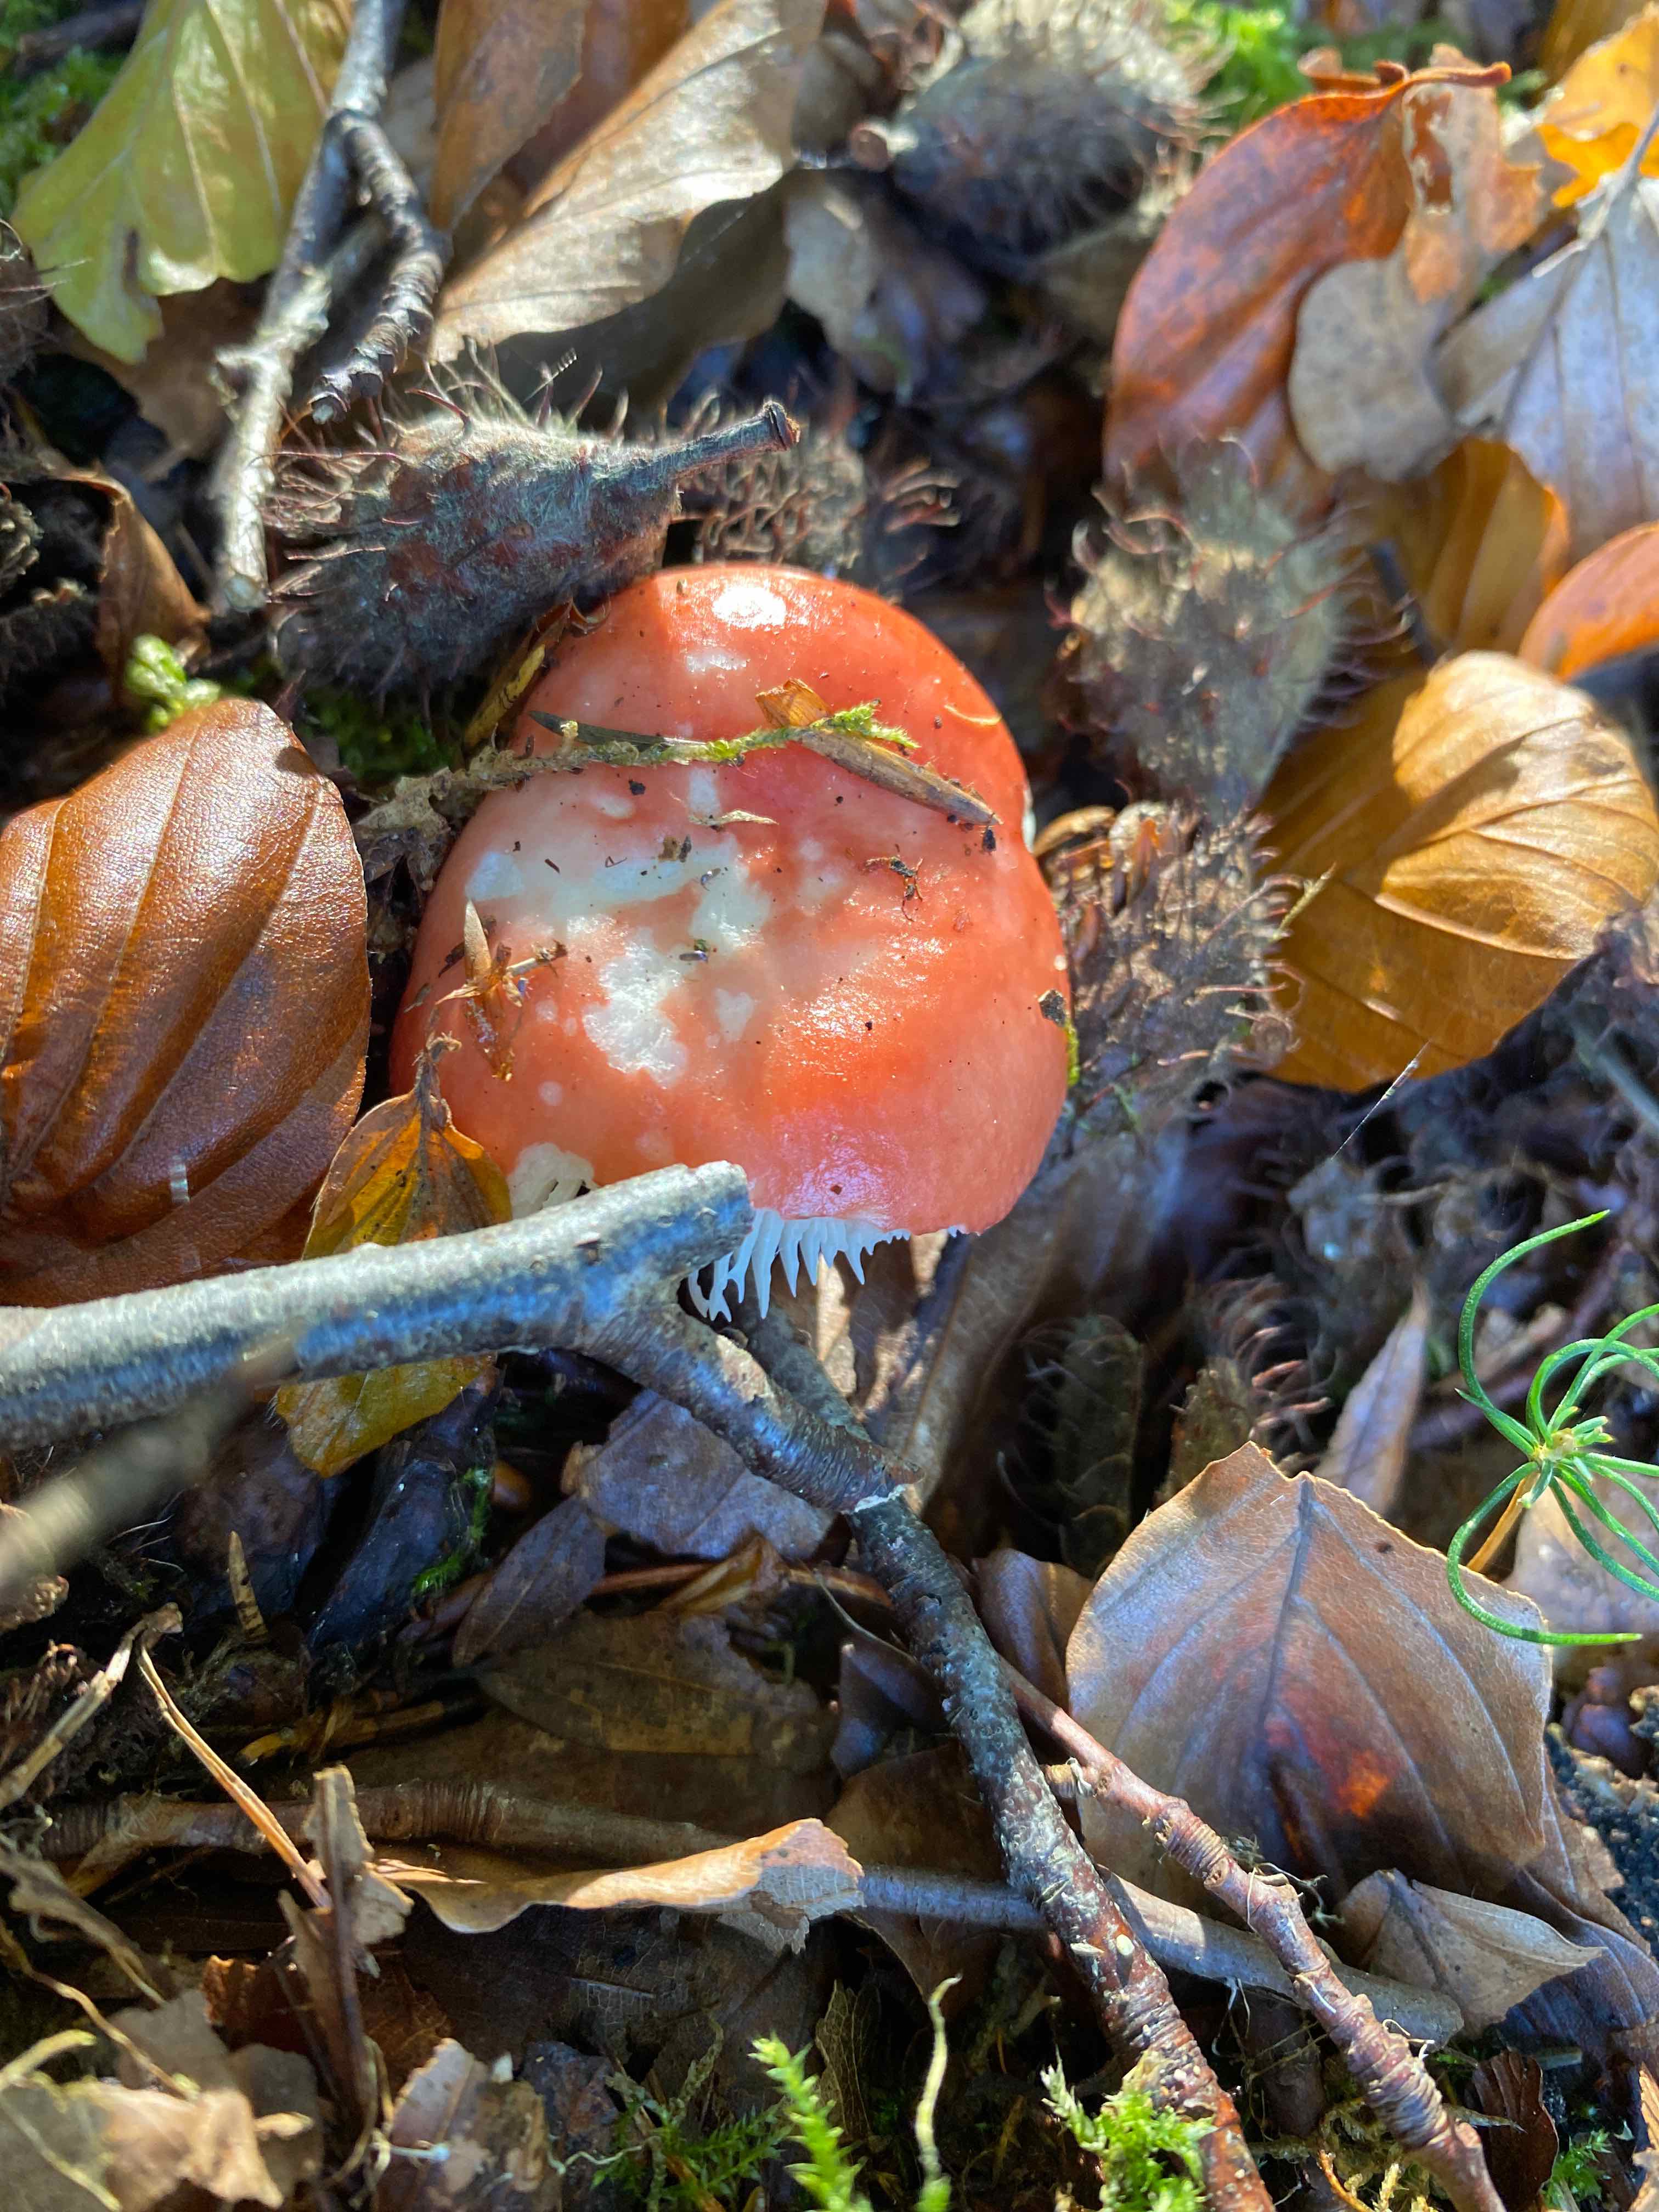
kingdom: Fungi
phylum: Basidiomycota
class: Agaricomycetes
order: Russulales
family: Russulaceae
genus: Russula
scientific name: Russula
